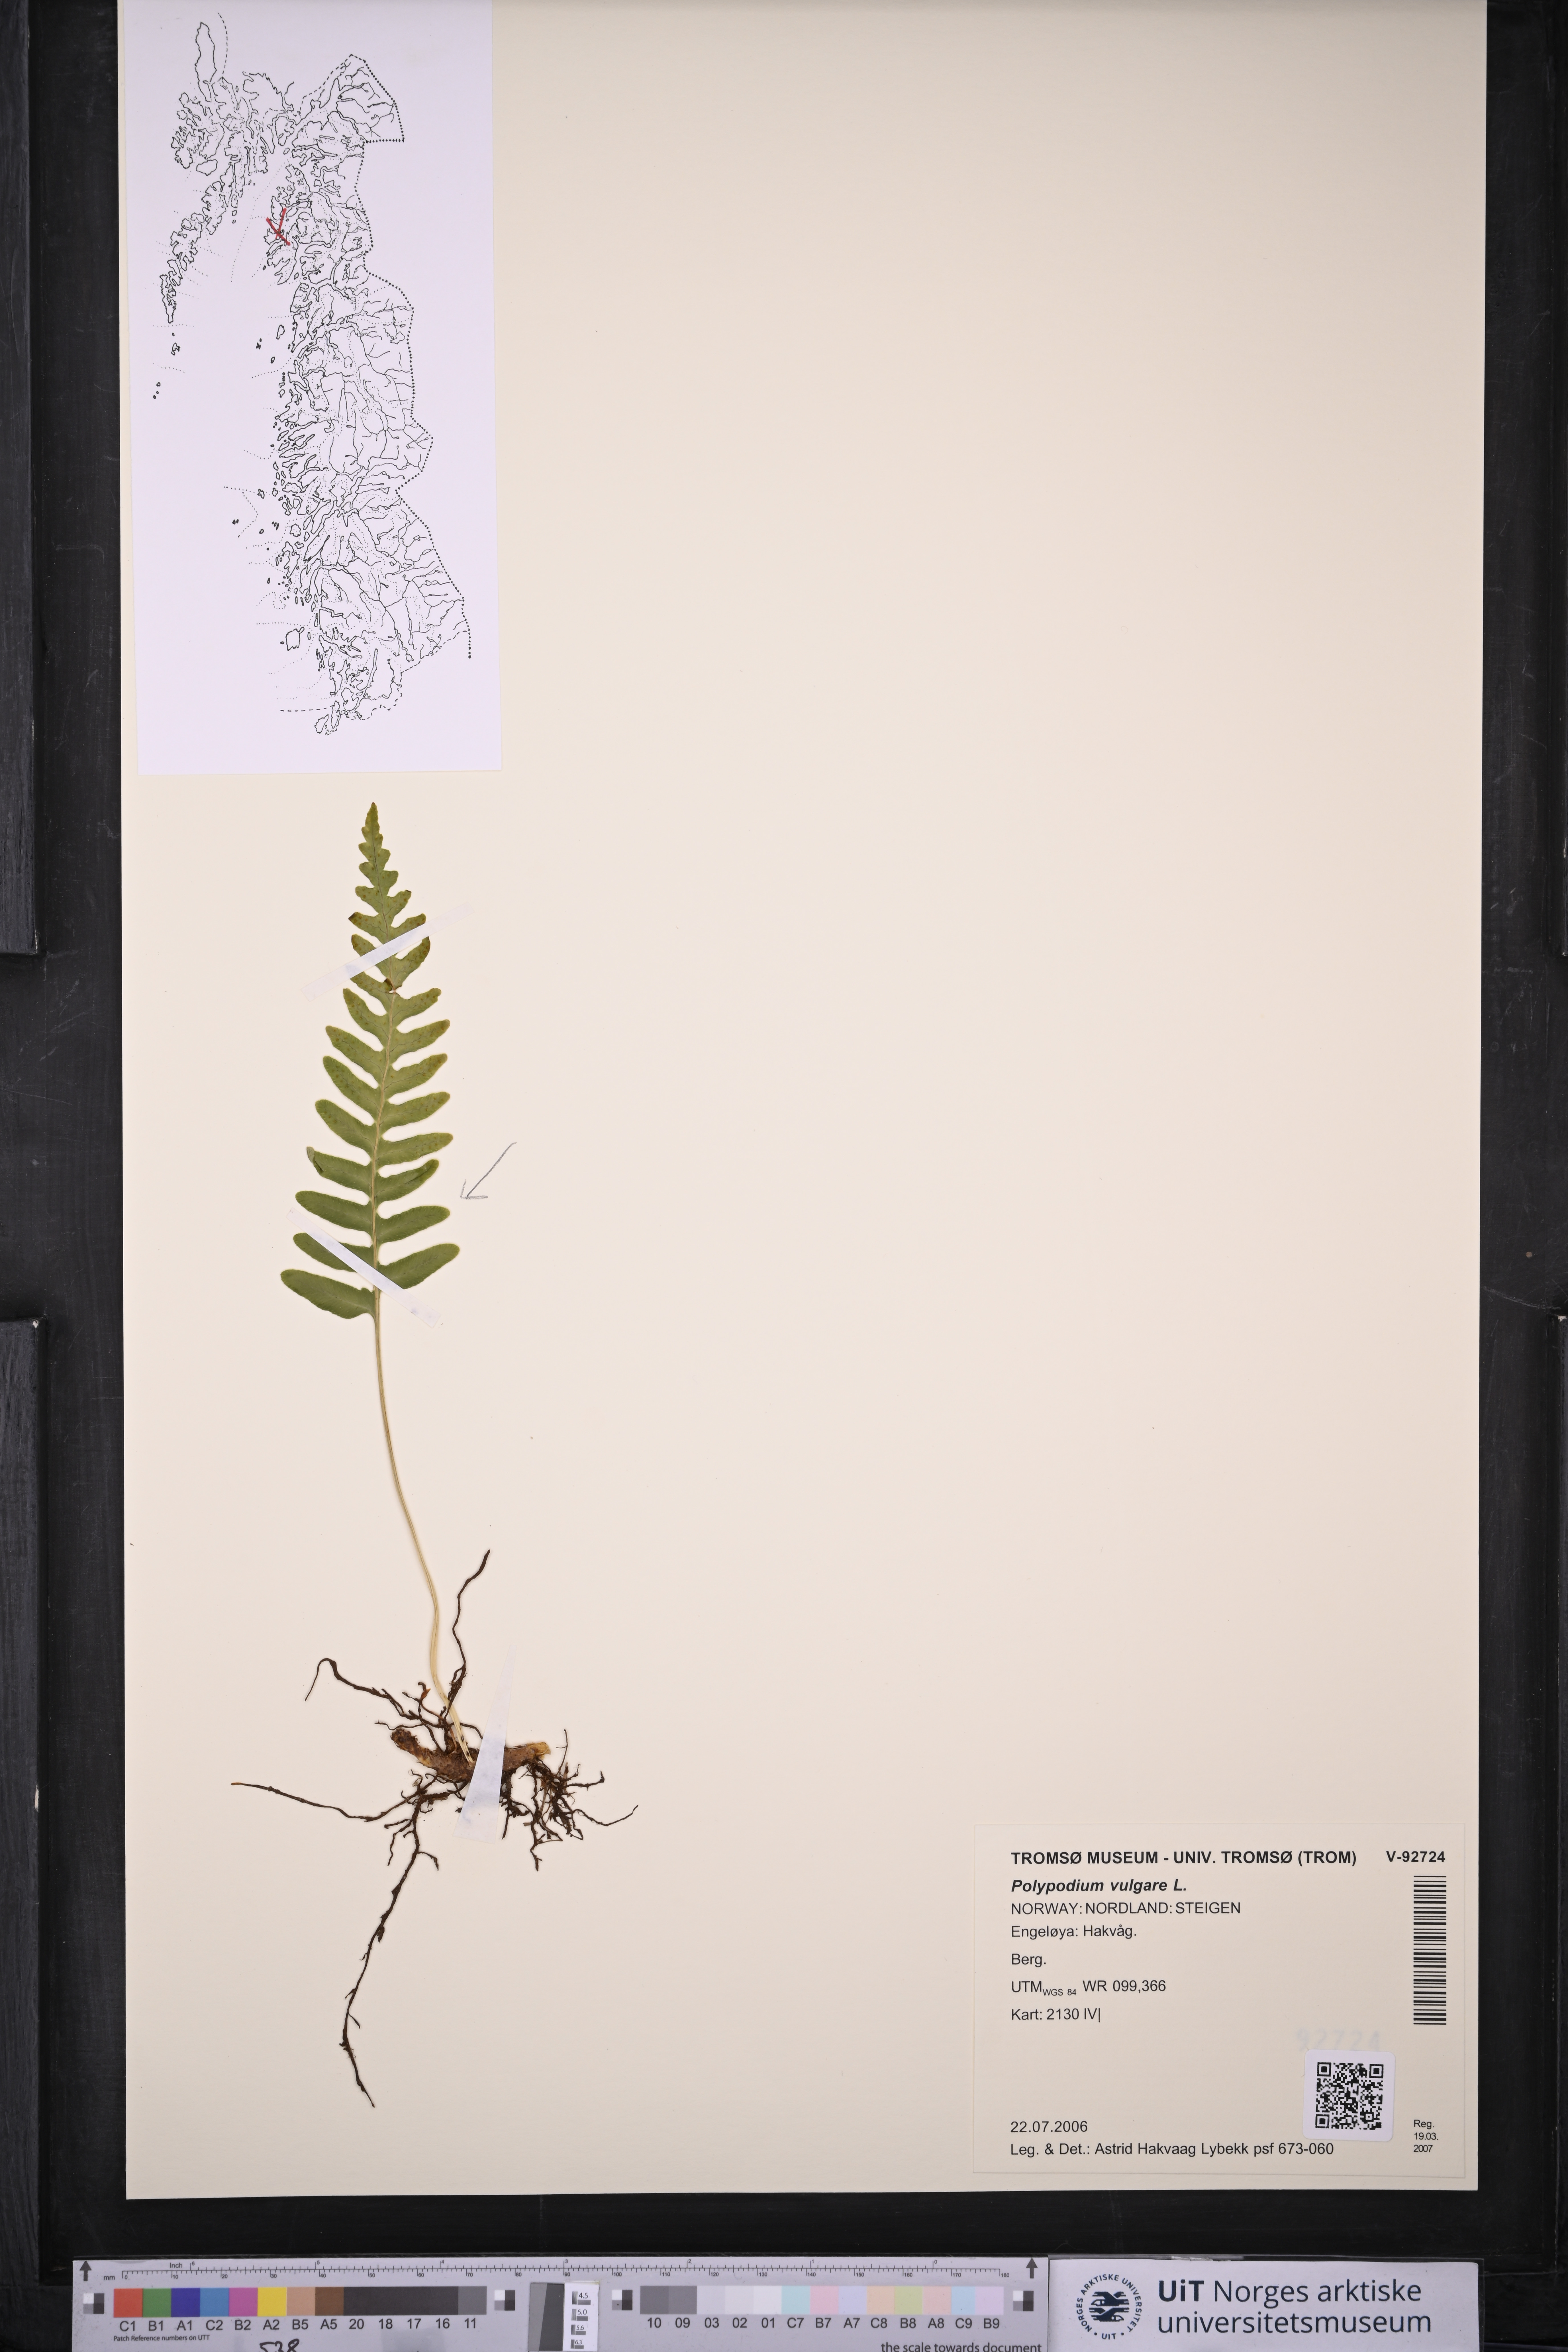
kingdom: Plantae
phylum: Tracheophyta
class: Polypodiopsida
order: Polypodiales
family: Polypodiaceae
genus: Polypodium
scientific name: Polypodium vulgare
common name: Common polypody
